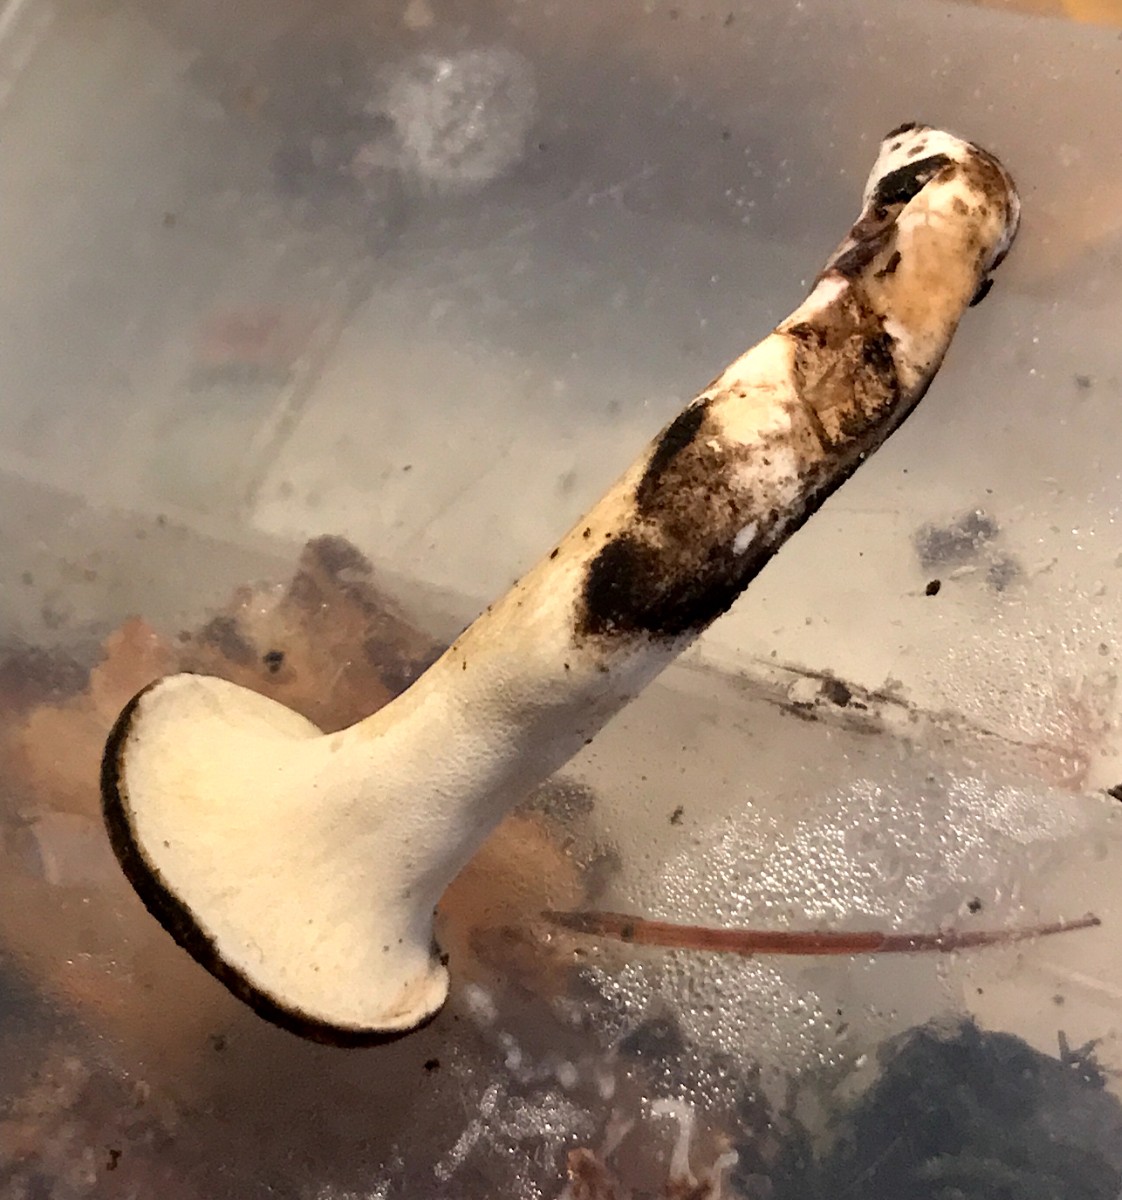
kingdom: Fungi
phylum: Basidiomycota
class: Agaricomycetes
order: Polyporales
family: Polyporaceae
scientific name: Polyporaceae
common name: poresvampfamilien
